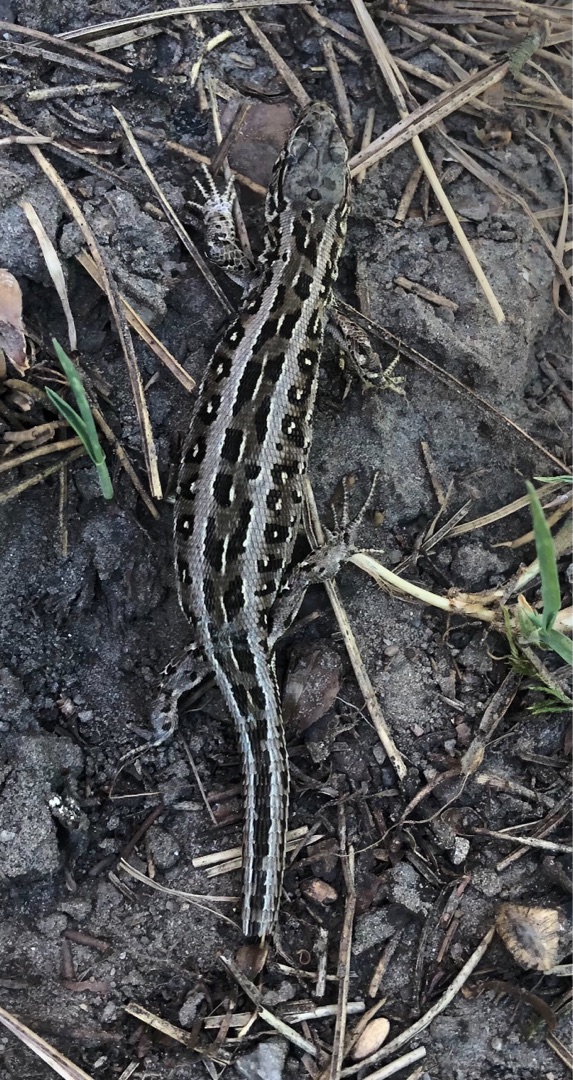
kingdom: Animalia
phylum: Chordata
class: Squamata
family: Lacertidae
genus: Lacerta
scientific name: Lacerta agilis
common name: Markfirben
